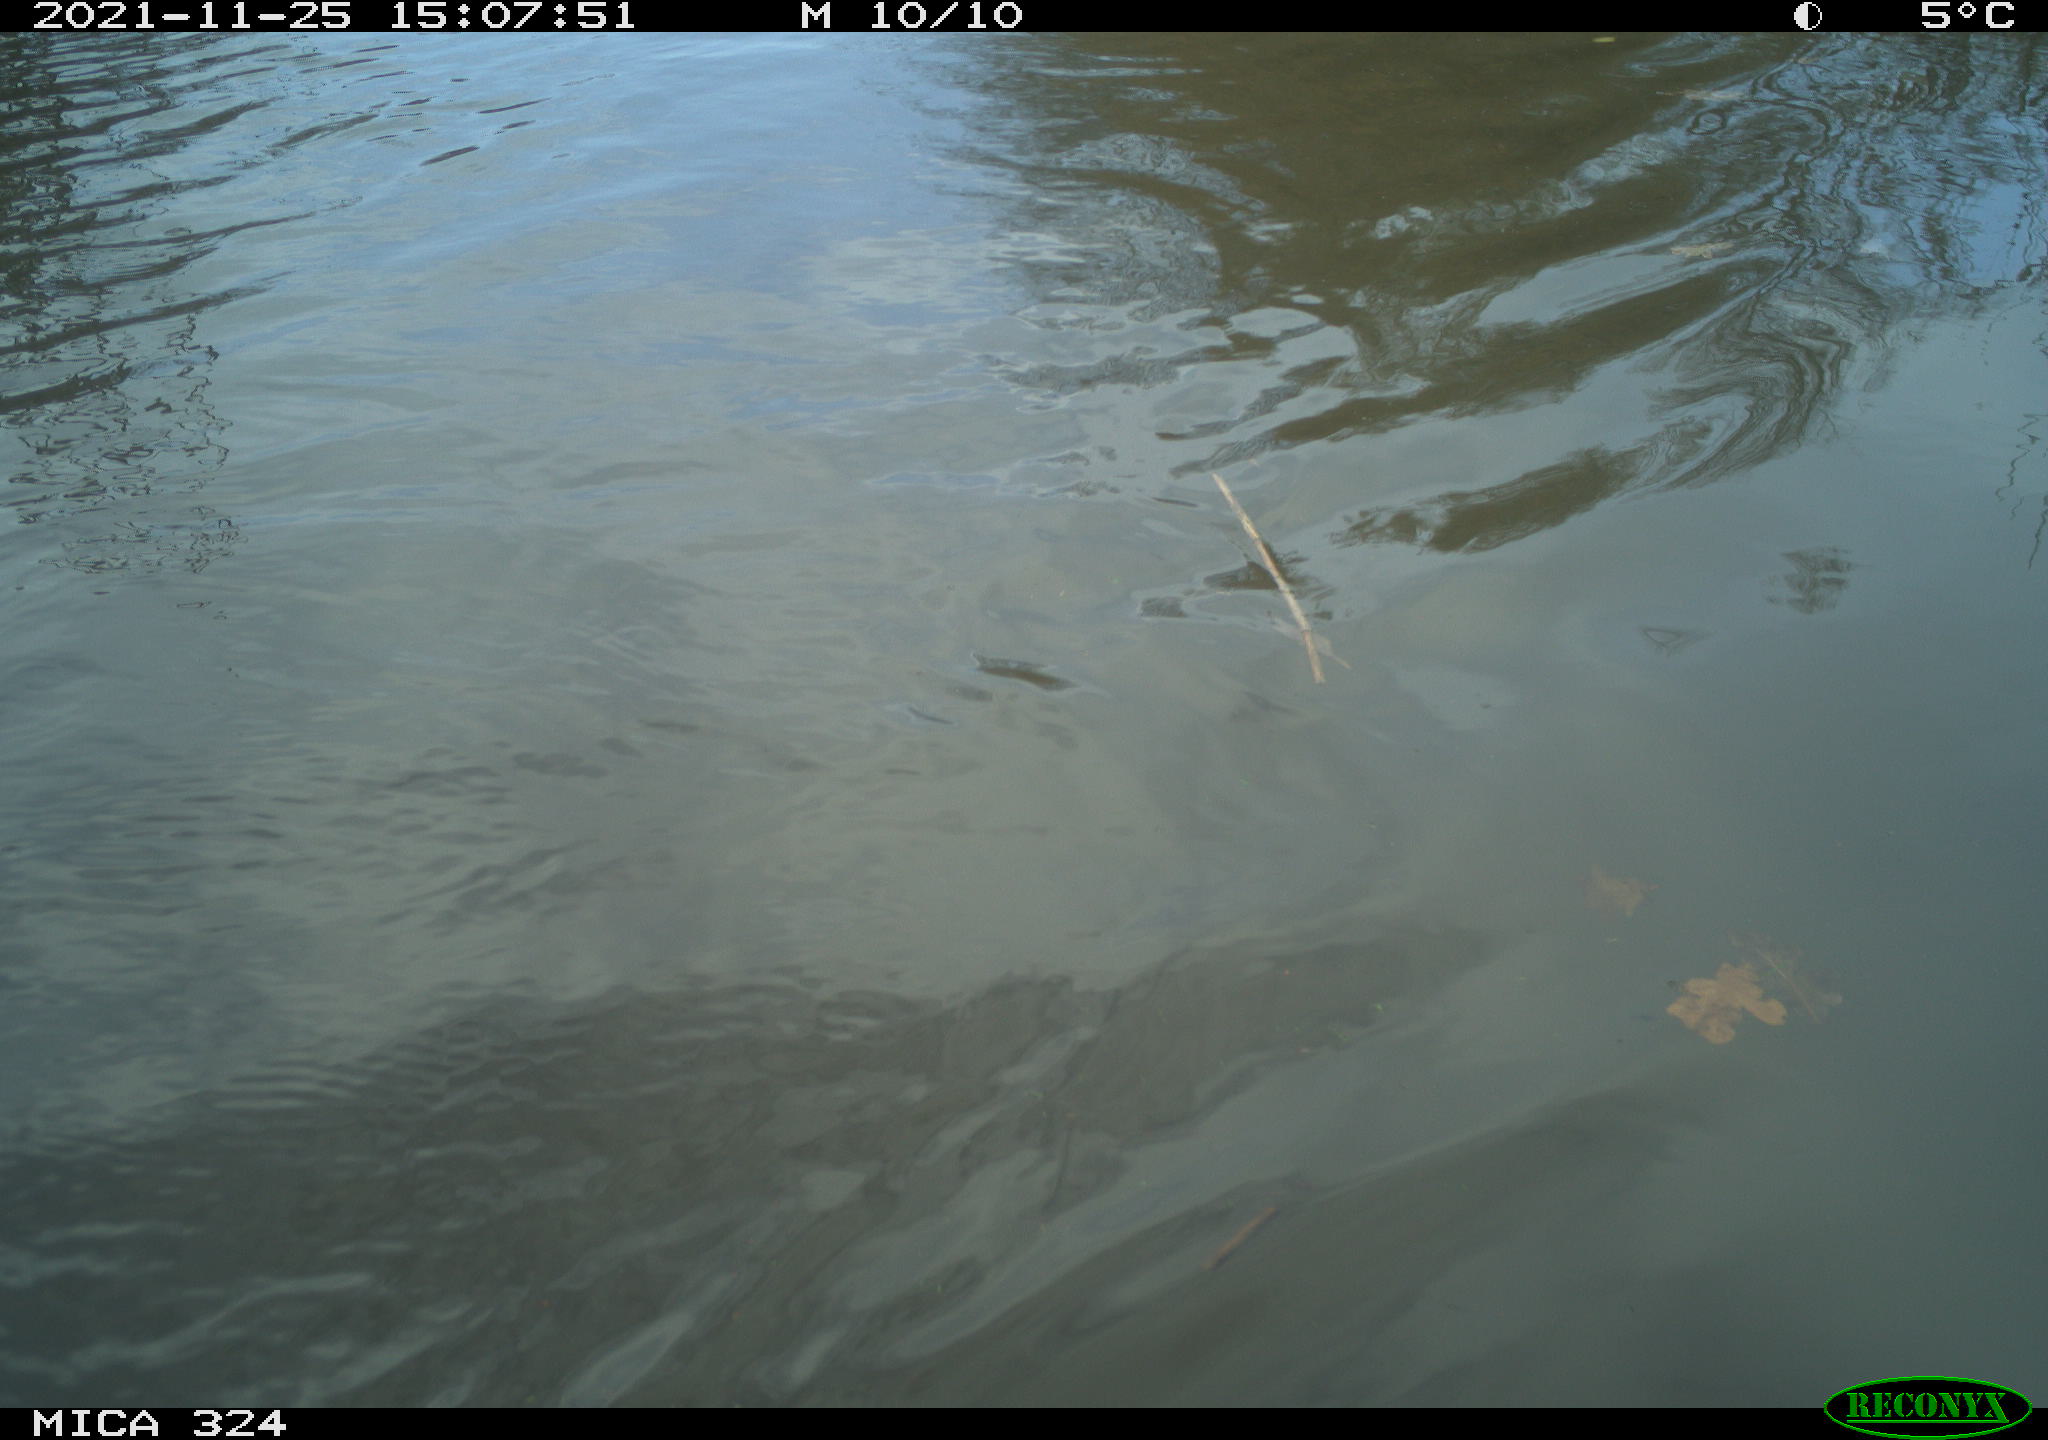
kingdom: Animalia
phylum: Chordata
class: Mammalia
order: Rodentia
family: Cricetidae
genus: Ondatra
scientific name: Ondatra zibethicus
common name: Muskrat
